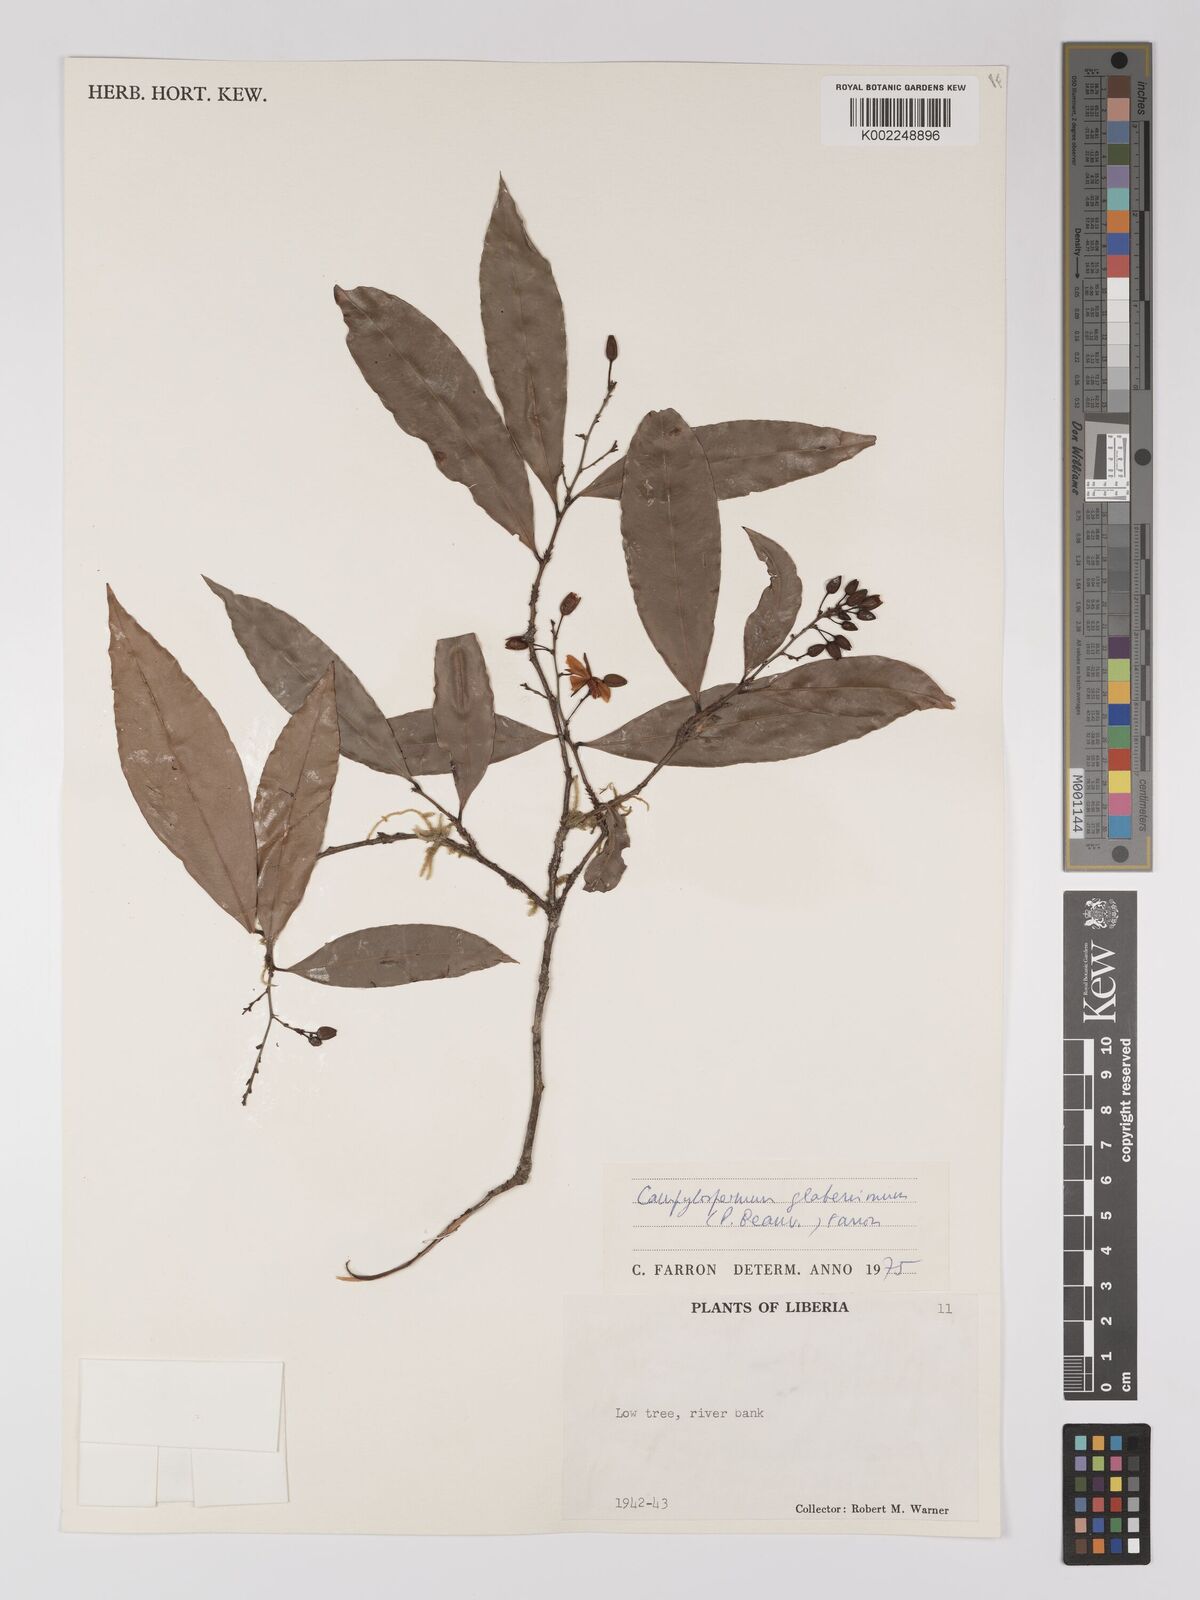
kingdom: Plantae
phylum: Tracheophyta
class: Magnoliopsida
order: Malpighiales
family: Ochnaceae
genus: Campylospermum
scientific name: Campylospermum glaberrimum
